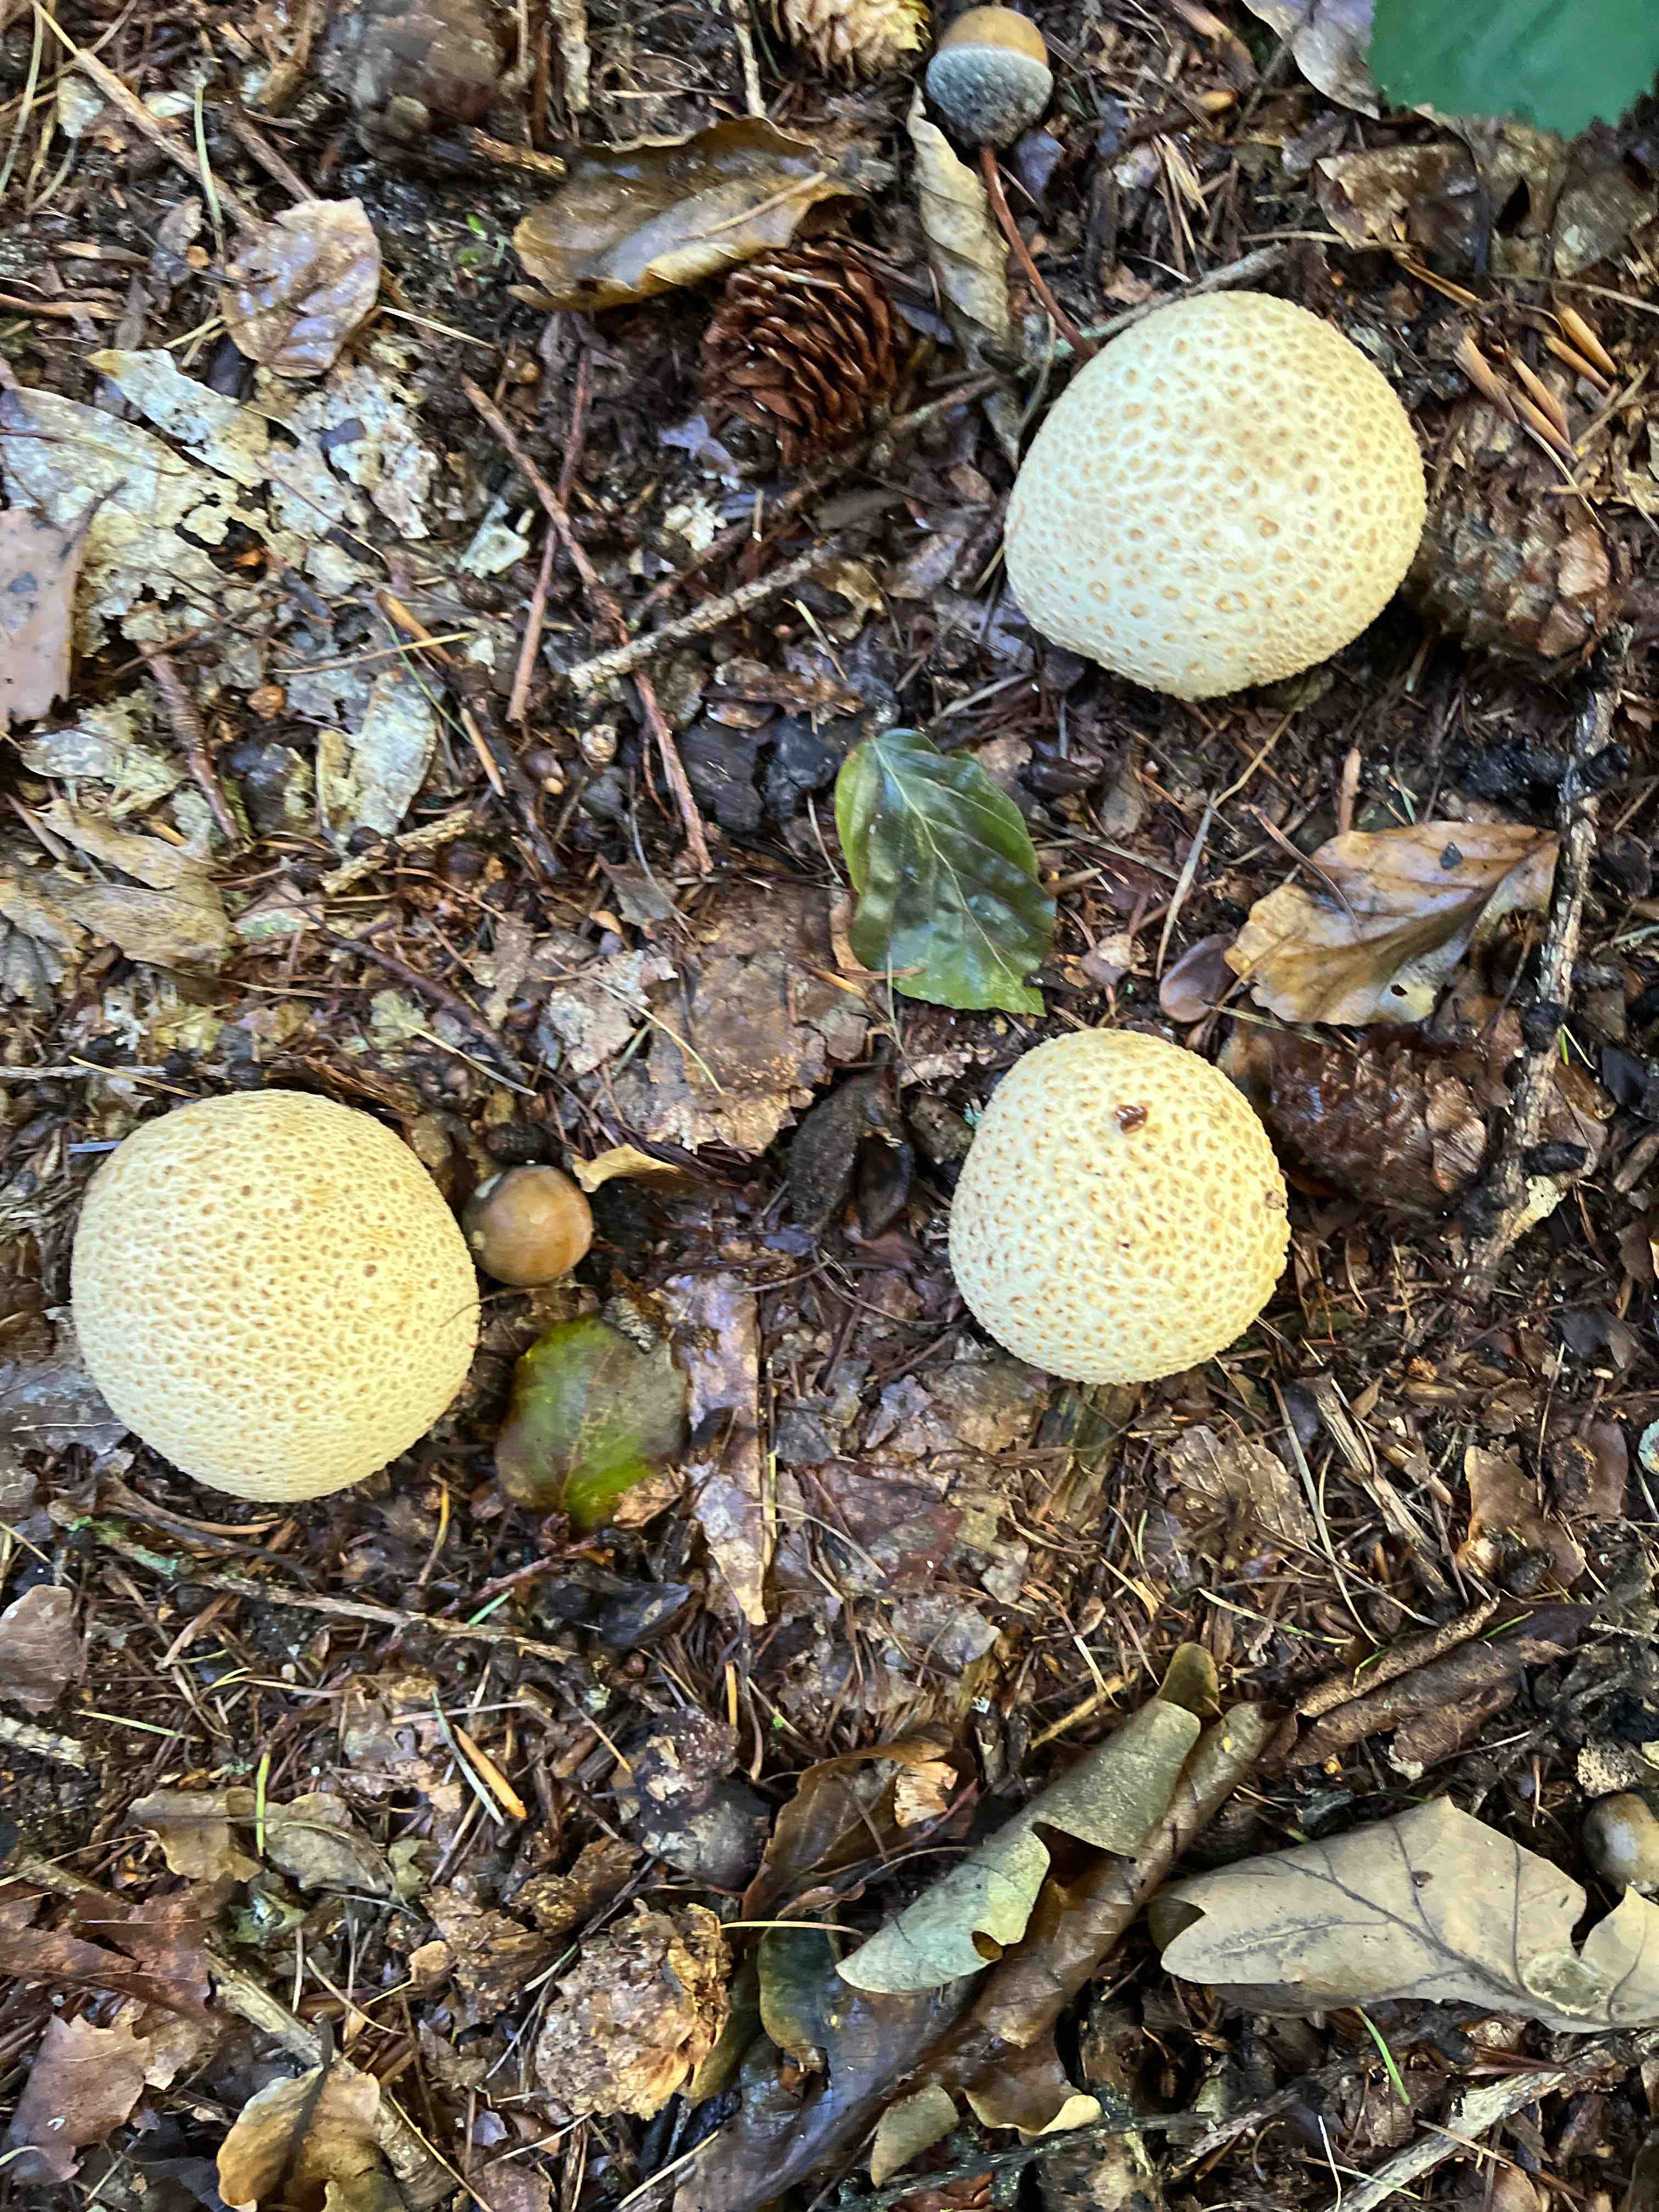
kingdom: Fungi
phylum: Basidiomycota
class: Agaricomycetes
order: Boletales
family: Sclerodermataceae
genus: Scleroderma
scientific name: Scleroderma citrinum
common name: almindelig bruskbold
